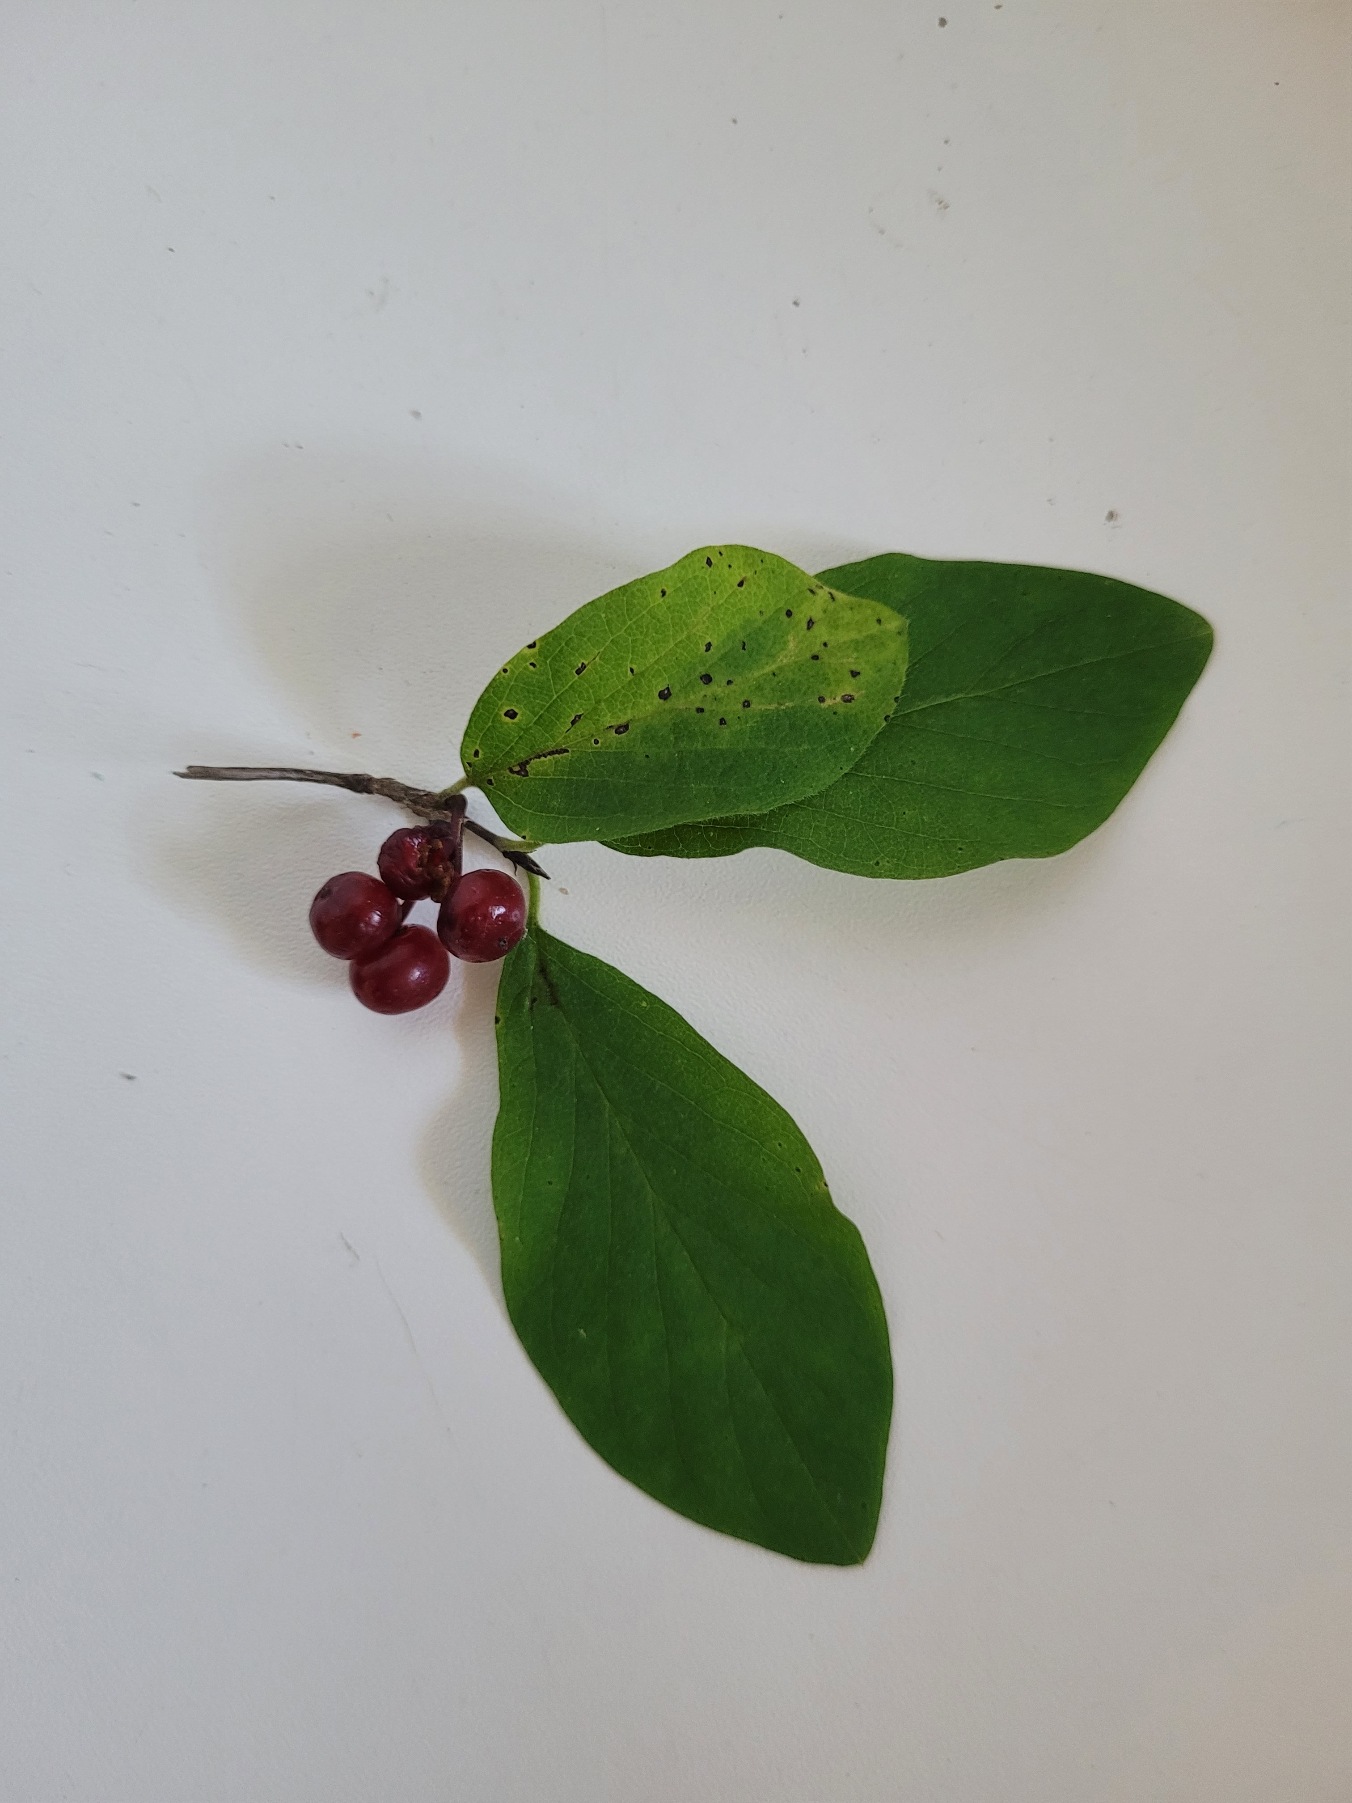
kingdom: Plantae
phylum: Tracheophyta
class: Magnoliopsida
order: Dipsacales
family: Caprifoliaceae
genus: Lonicera
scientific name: Lonicera xylosteum
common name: Dunet gedeblad
